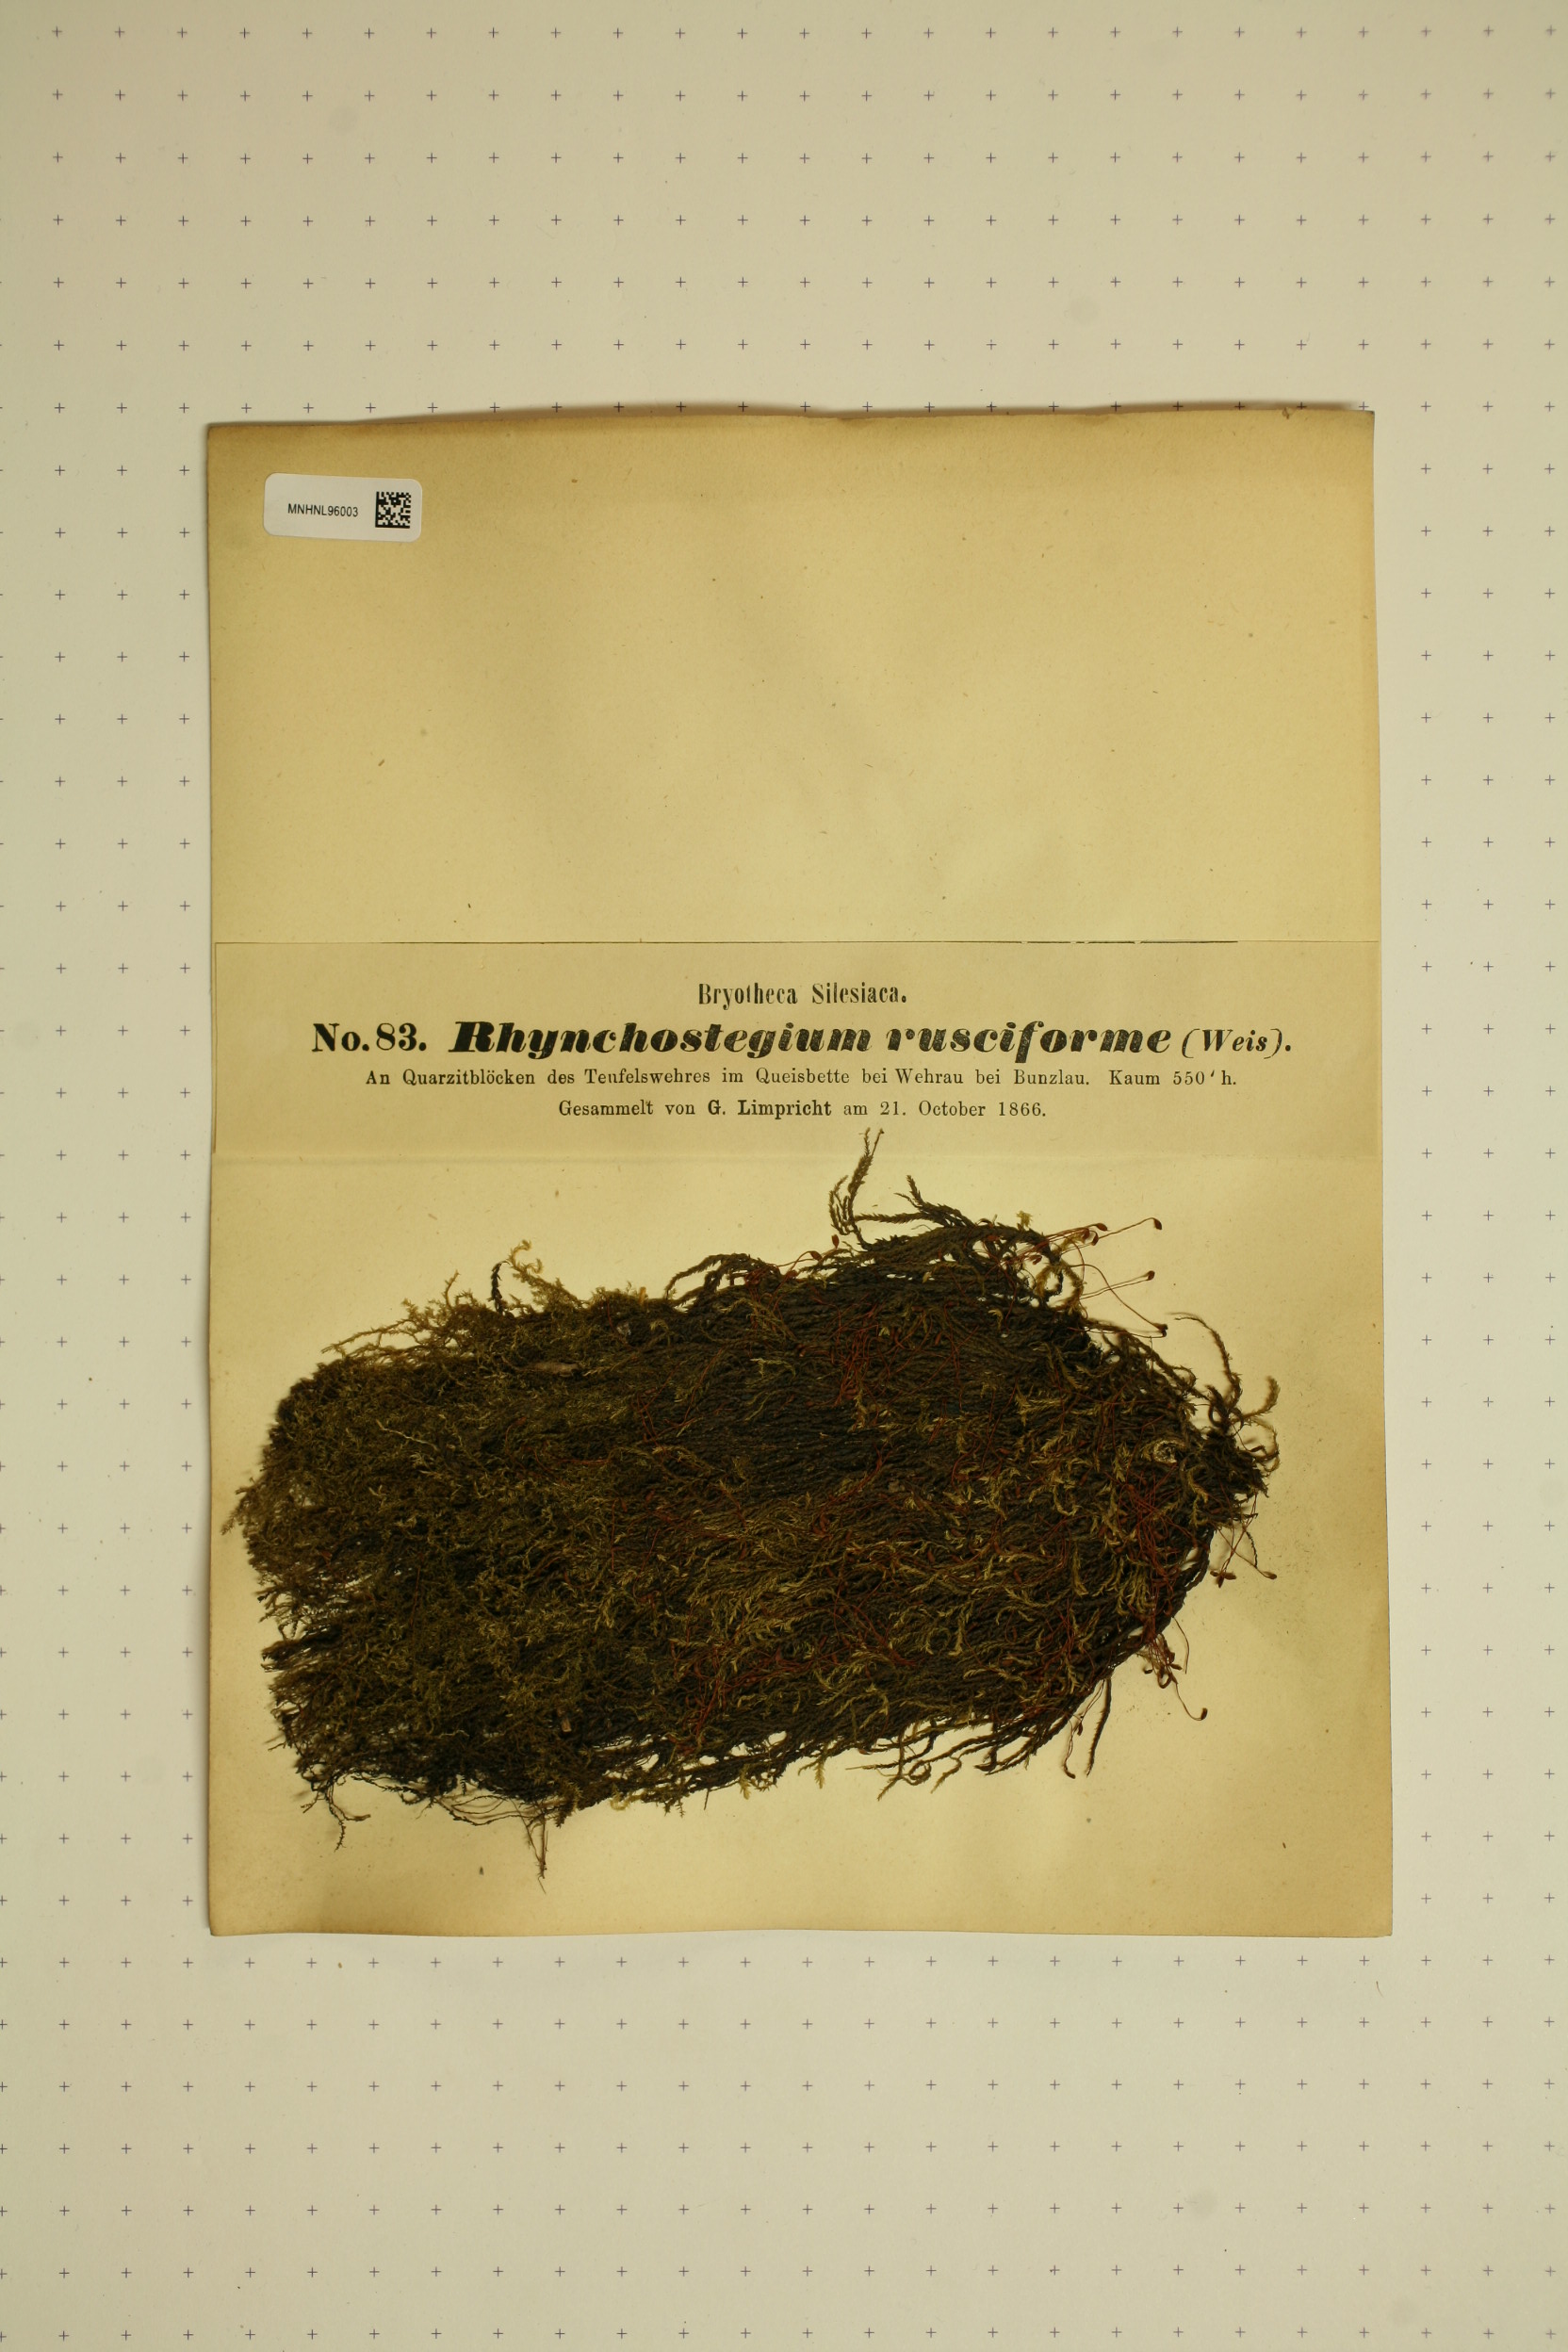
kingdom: Plantae
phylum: Bryophyta
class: Bryopsida
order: Hypnales
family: Brachytheciaceae
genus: Rhynchostegium
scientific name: Rhynchostegium riparioides
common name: Platyhypnidium moss
